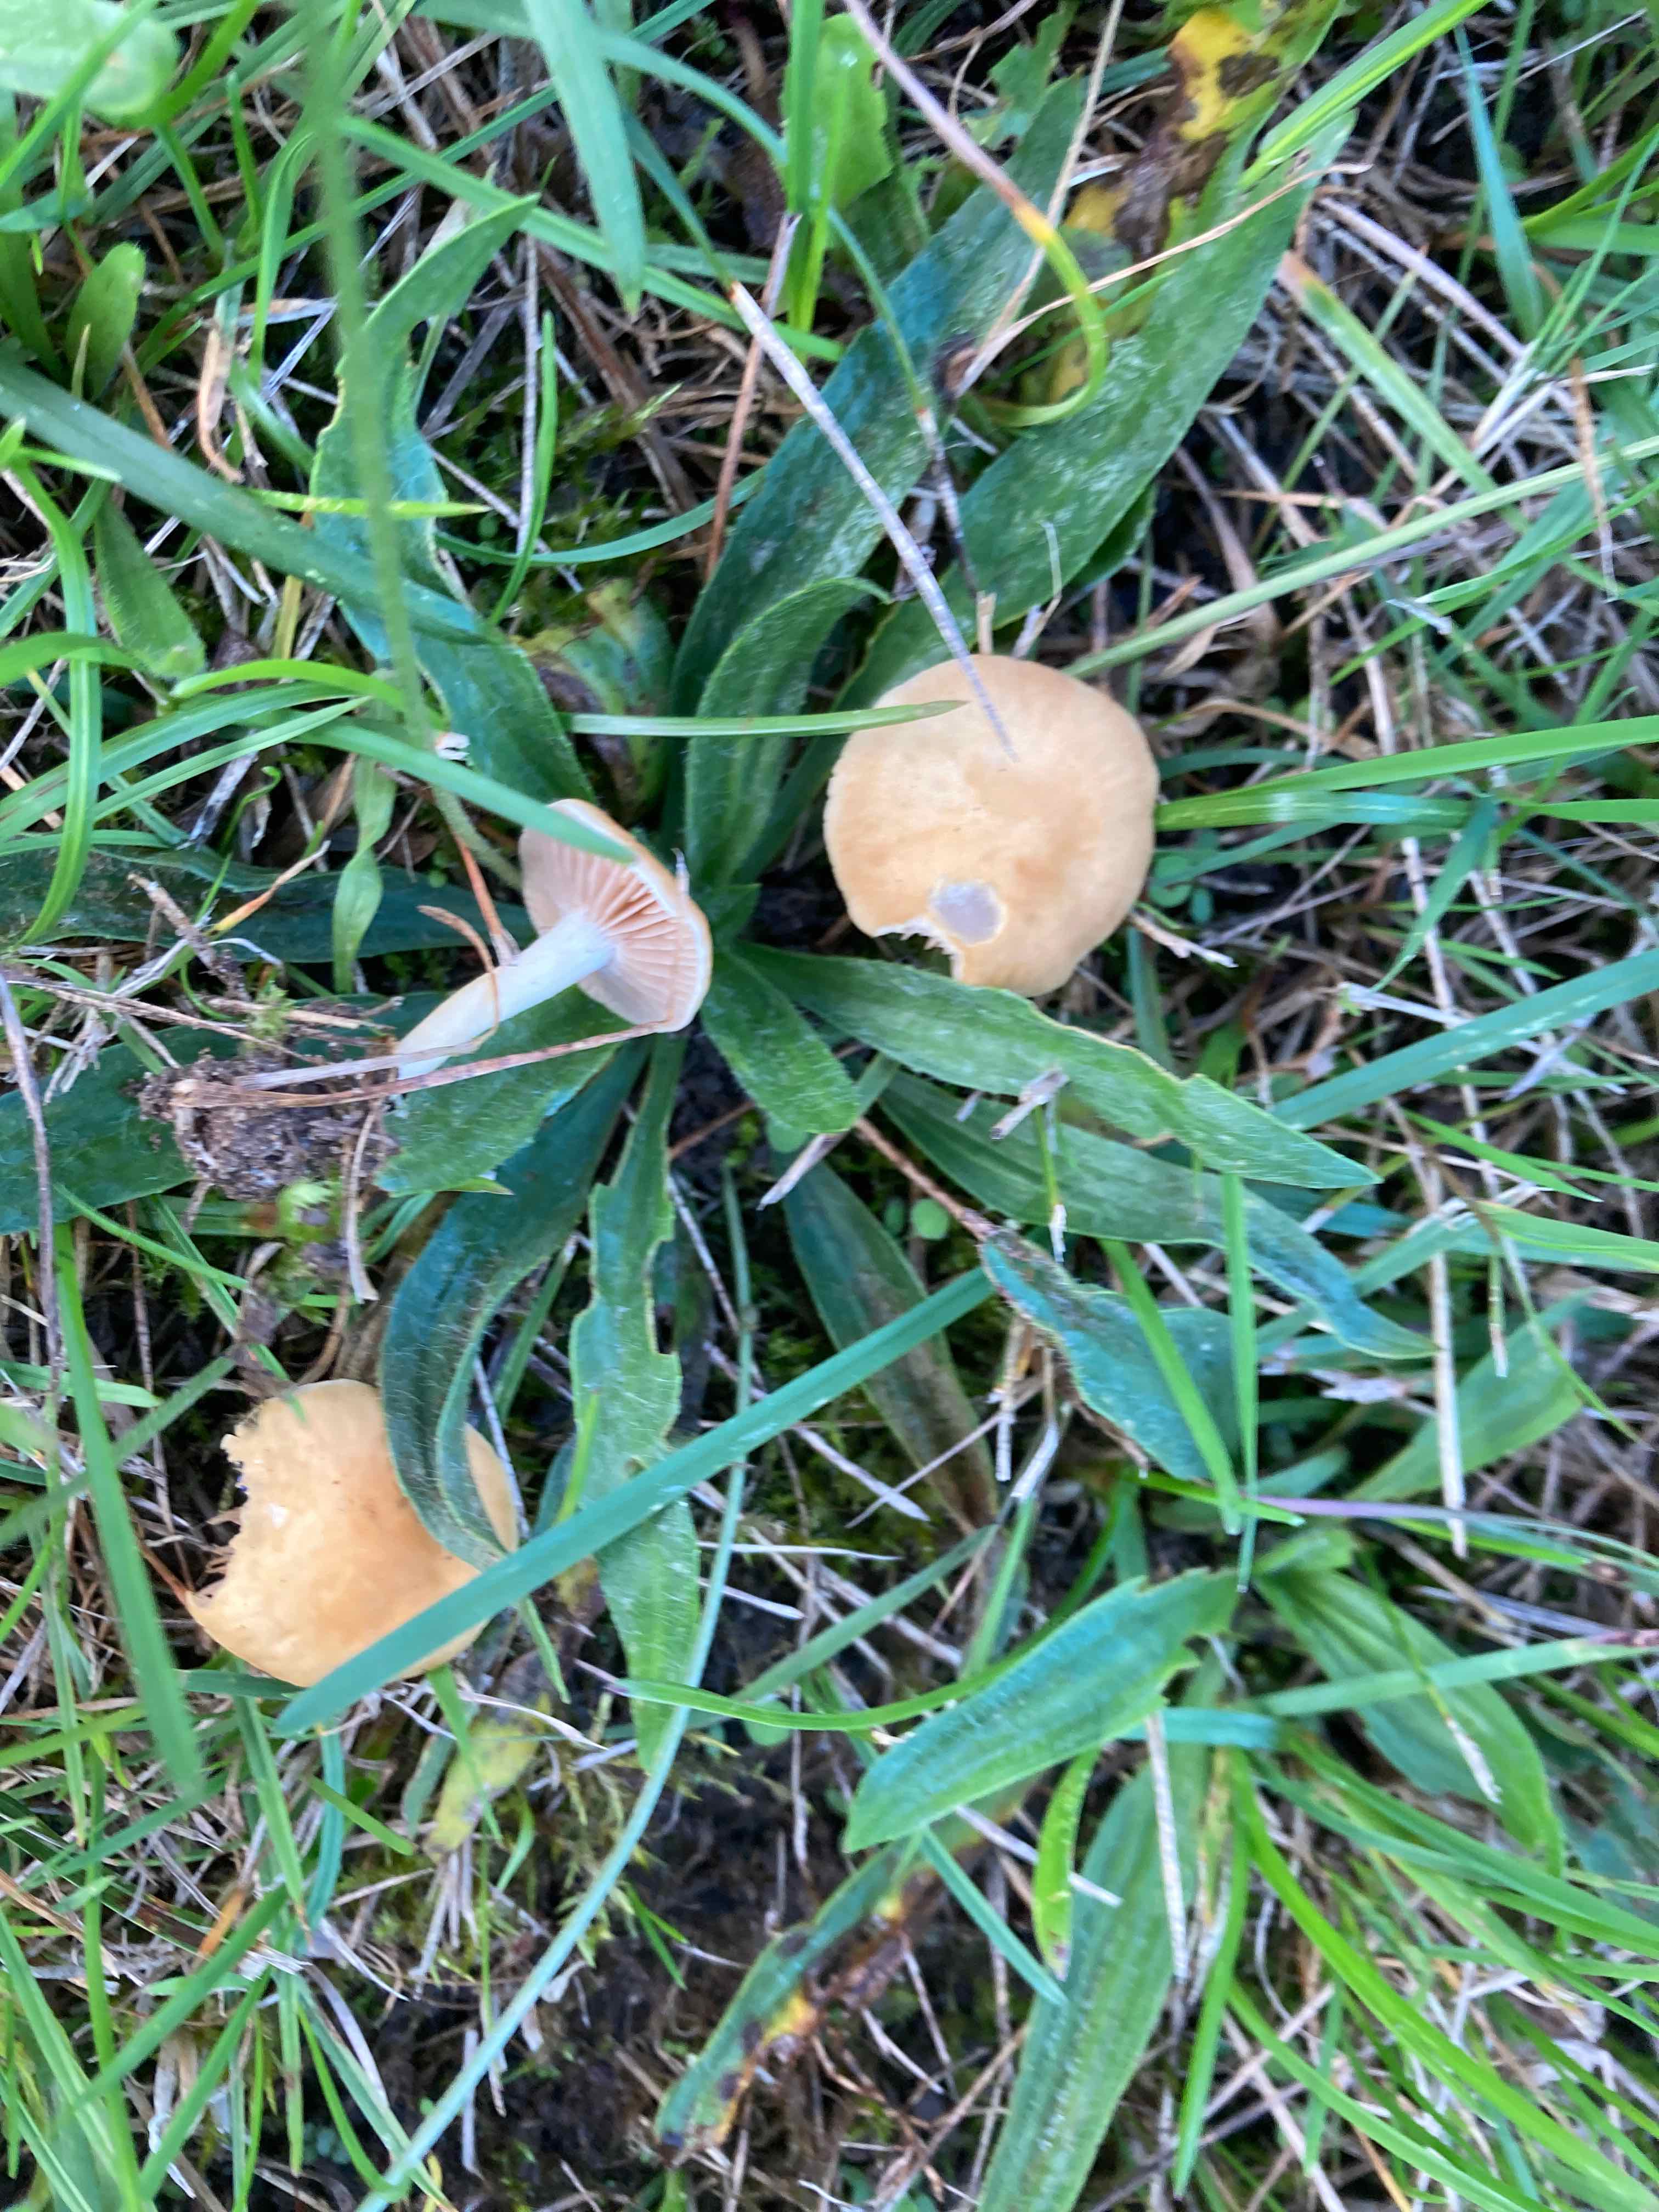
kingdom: Fungi
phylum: Basidiomycota
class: Agaricomycetes
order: Agaricales
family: Strophariaceae
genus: Agrocybe
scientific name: Agrocybe vervacti
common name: lav agerhat
